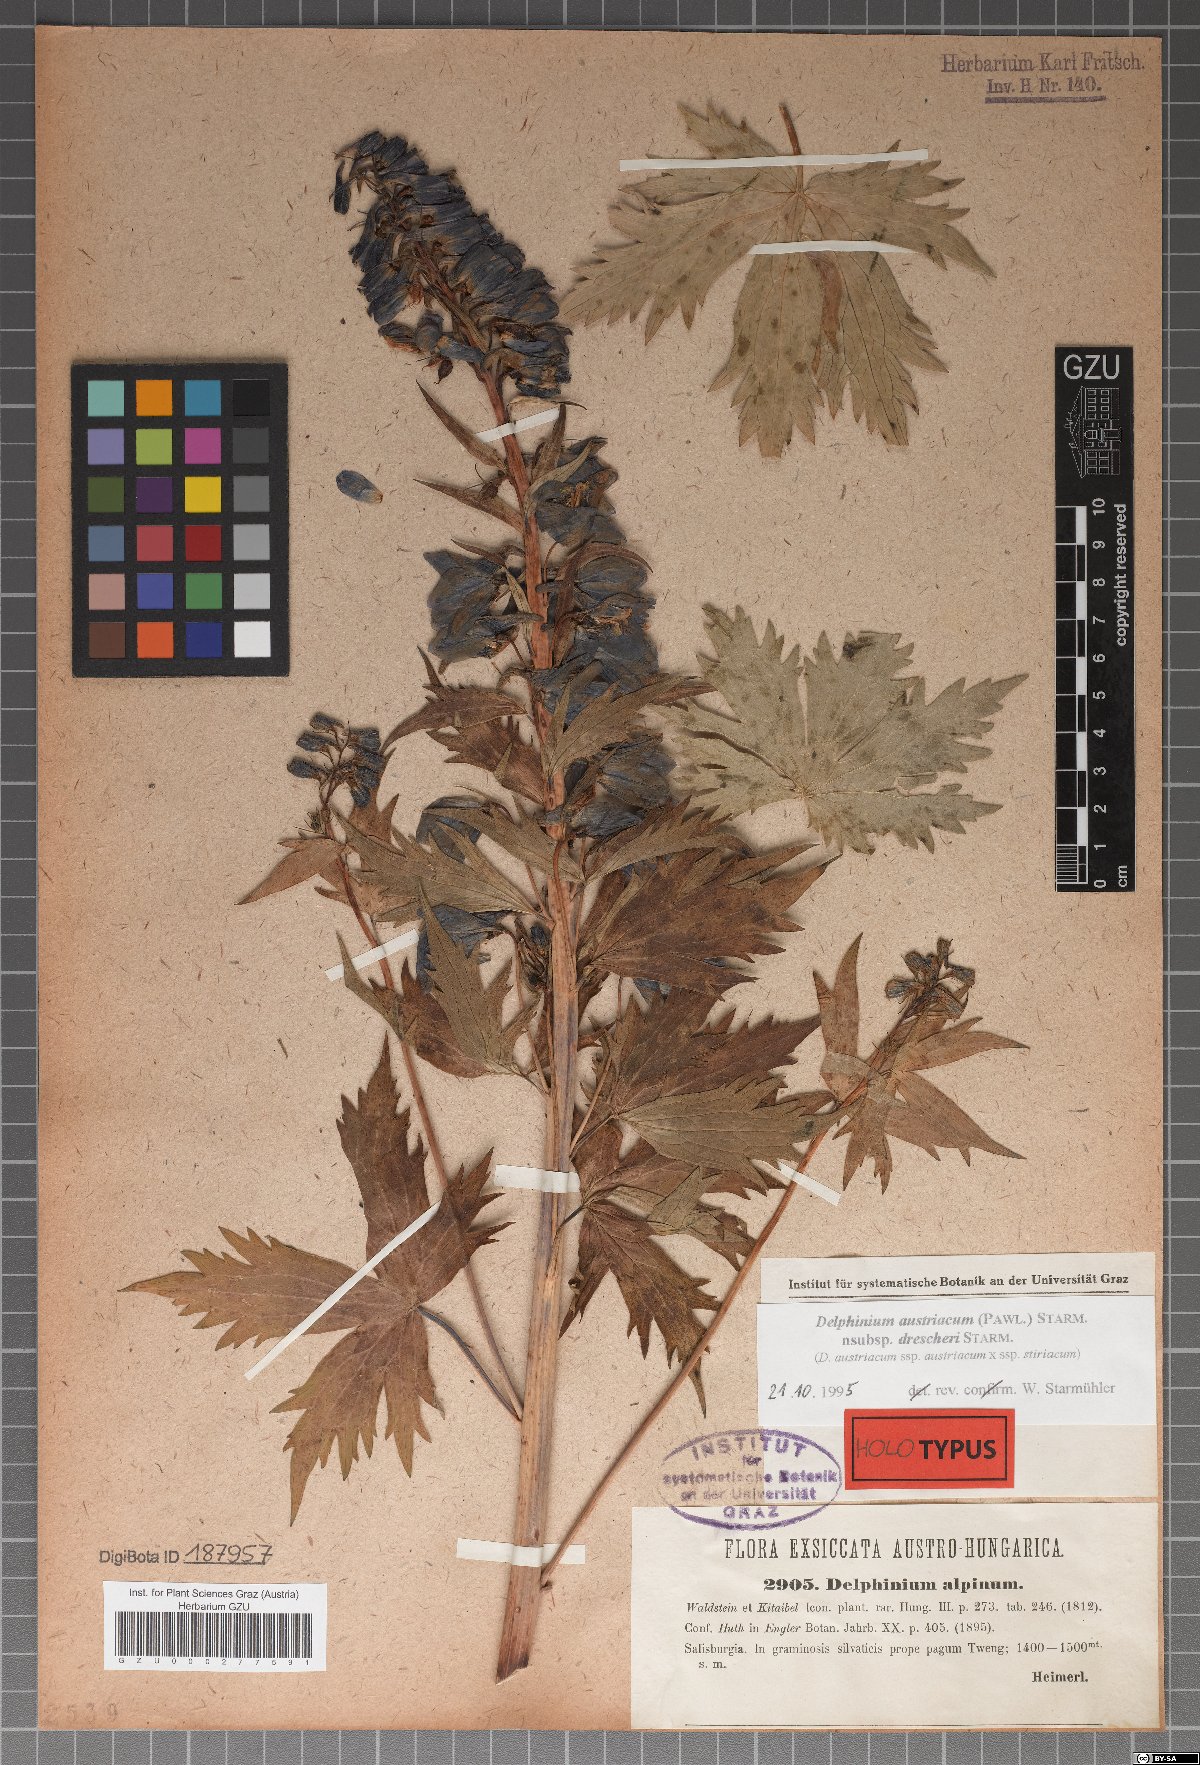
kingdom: Plantae
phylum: Tracheophyta
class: Magnoliopsida
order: Ranunculales
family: Ranunculaceae
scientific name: Ranunculaceae
